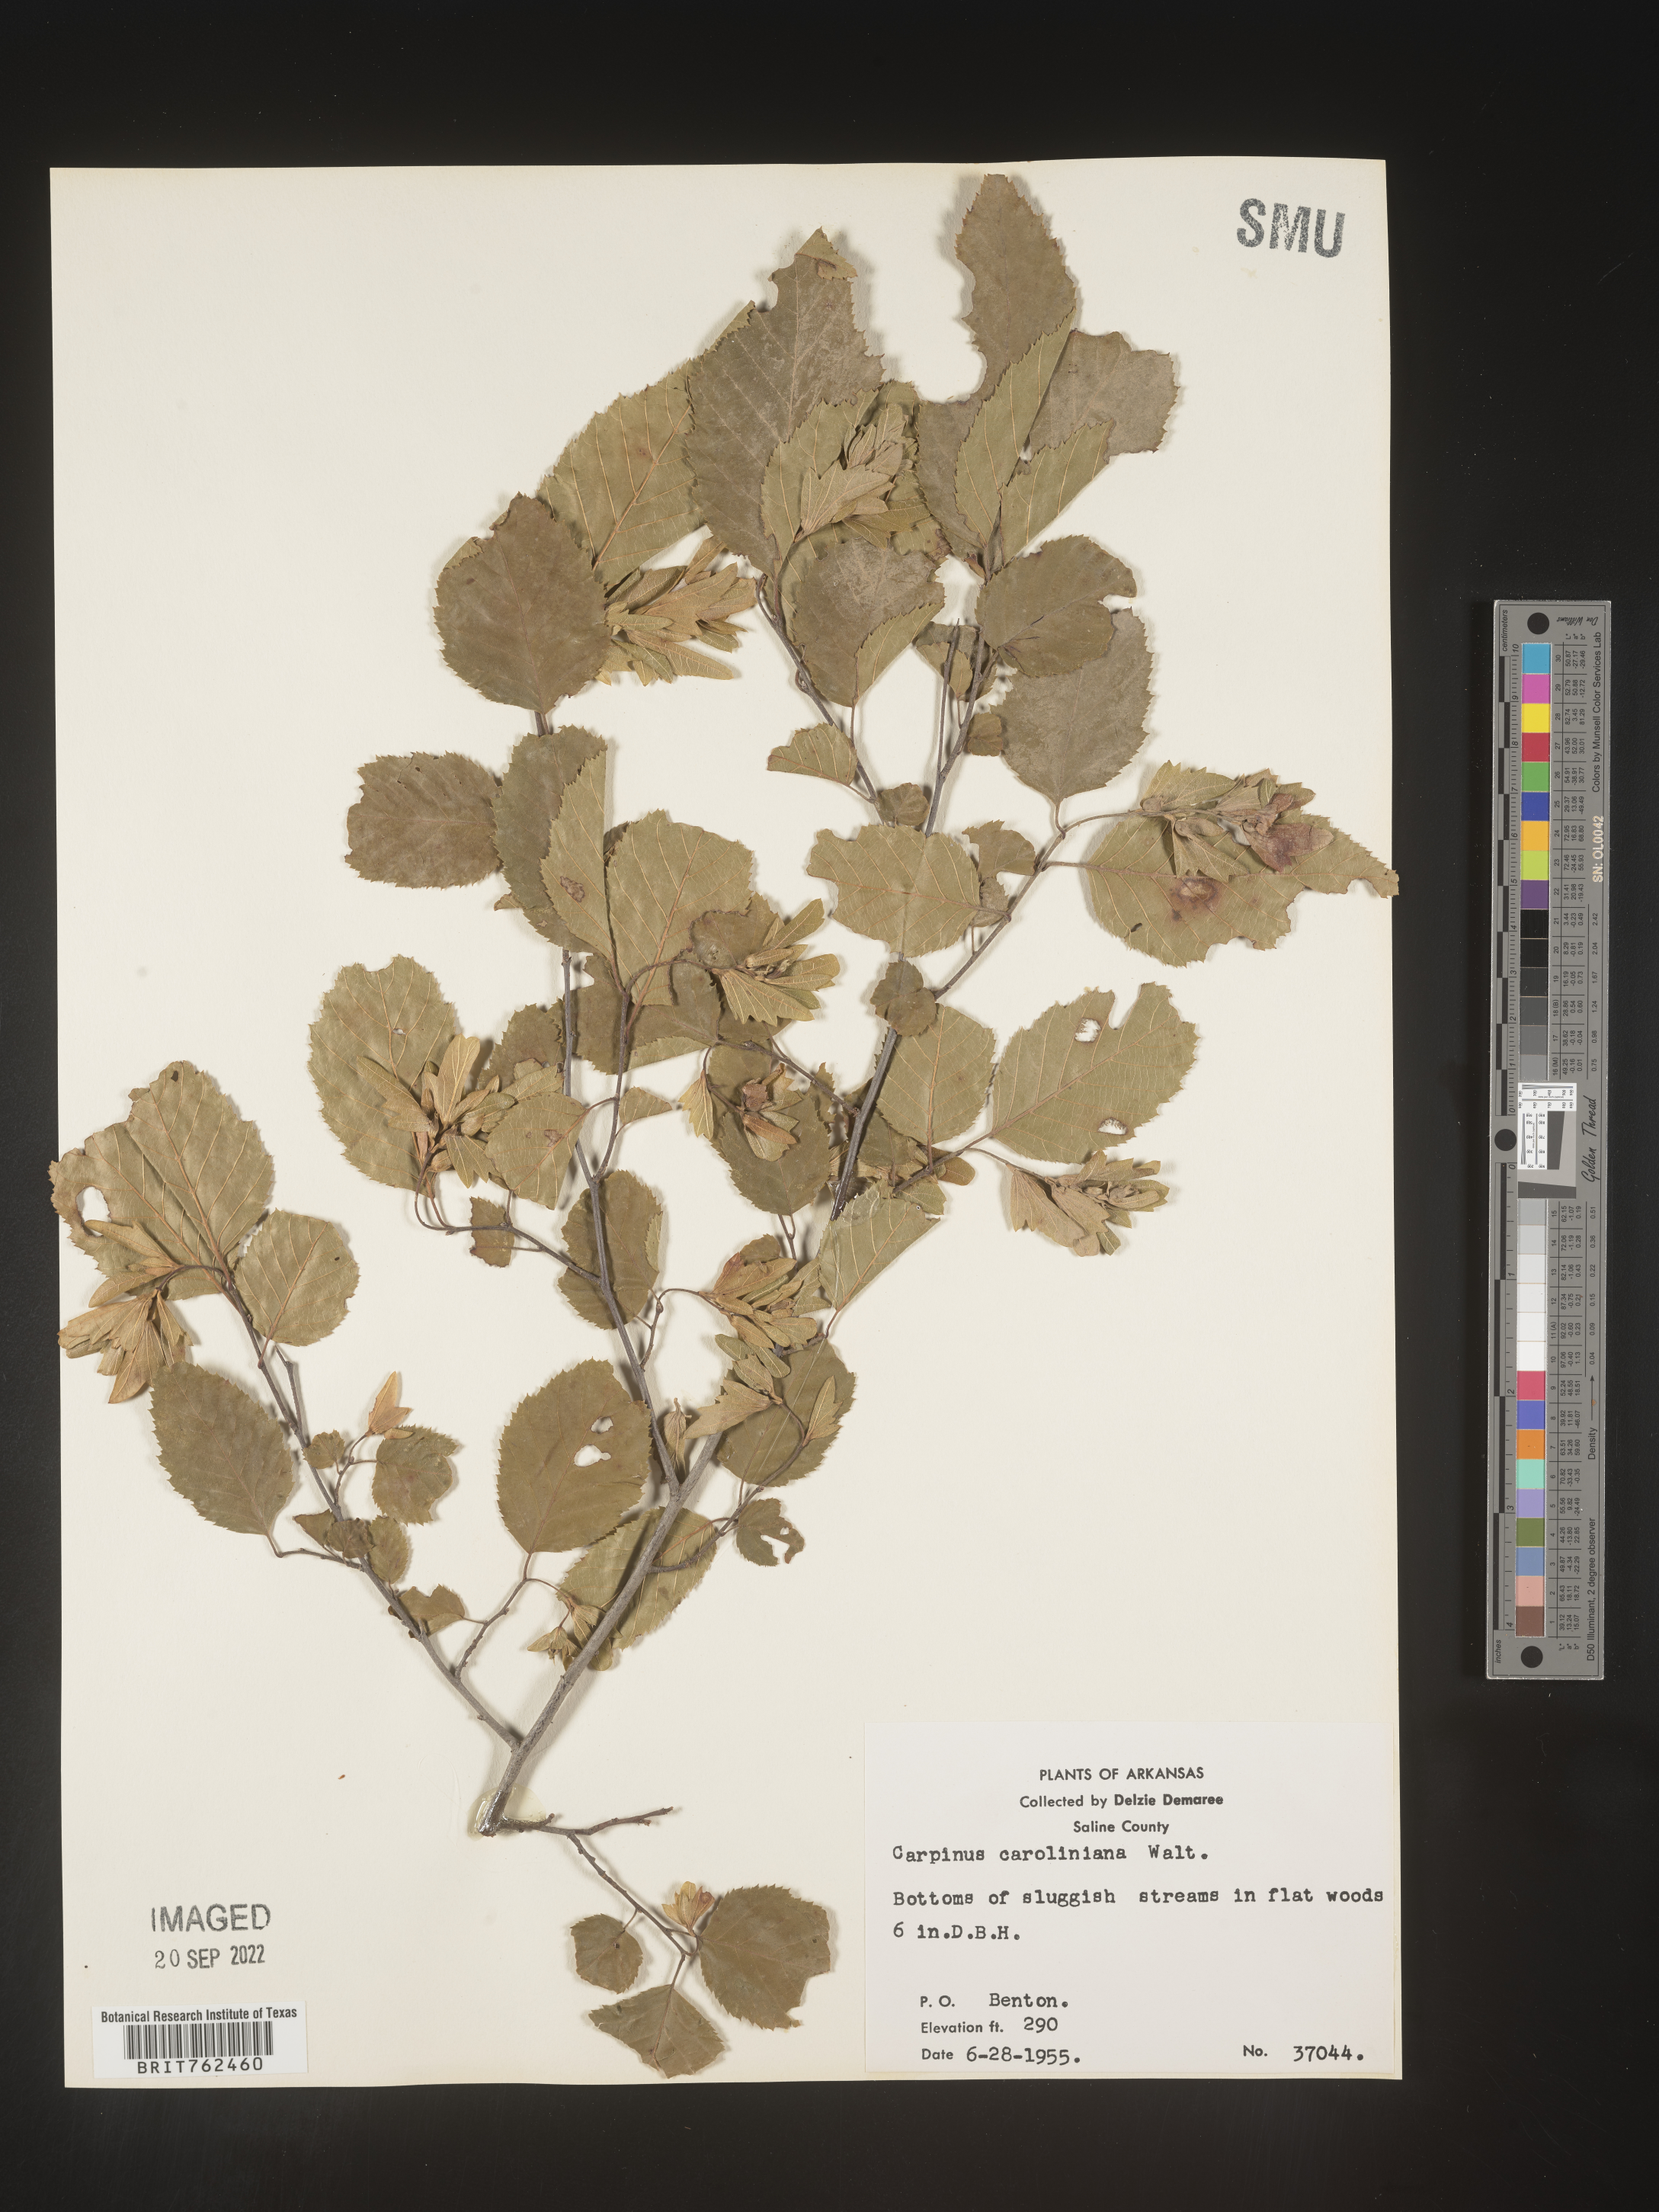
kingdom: Plantae
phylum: Tracheophyta
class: Magnoliopsida
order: Fagales
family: Betulaceae
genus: Carpinus
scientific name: Carpinus caroliniana
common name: American hornbeam
